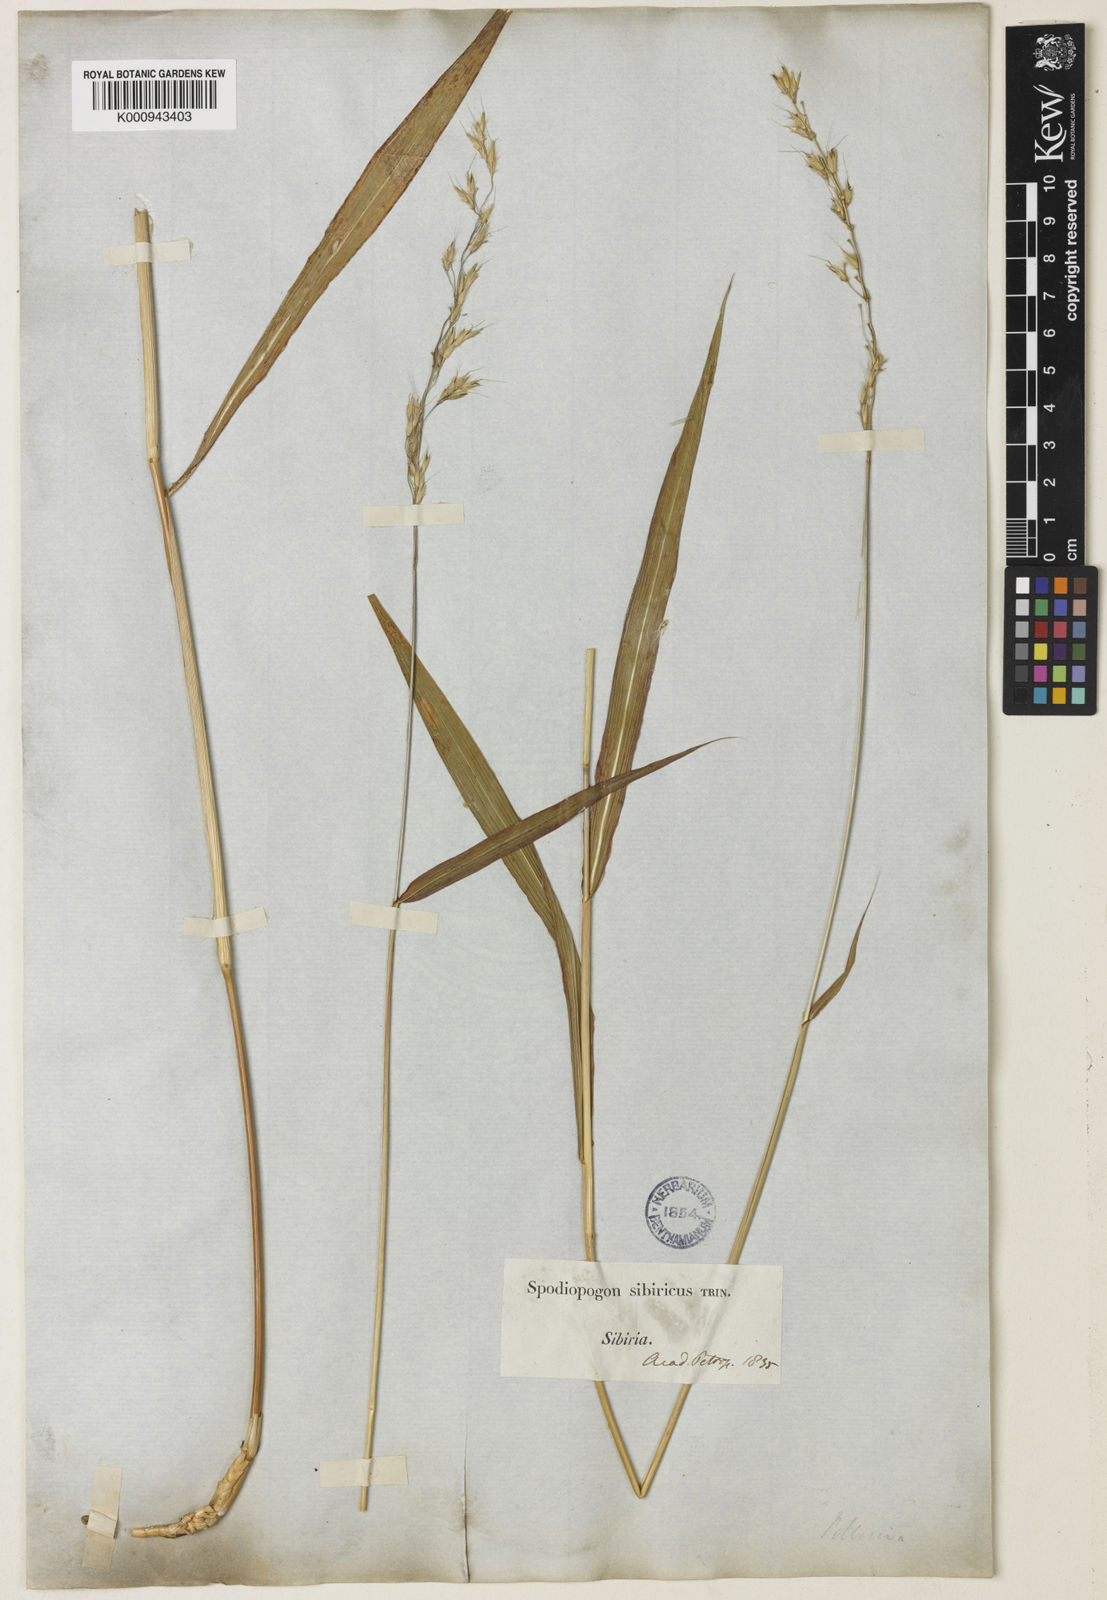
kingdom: Plantae
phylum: Tracheophyta
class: Liliopsida
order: Poales
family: Poaceae
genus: Spodiopogon
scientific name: Spodiopogon sibiricus
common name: Siberian graybeard
